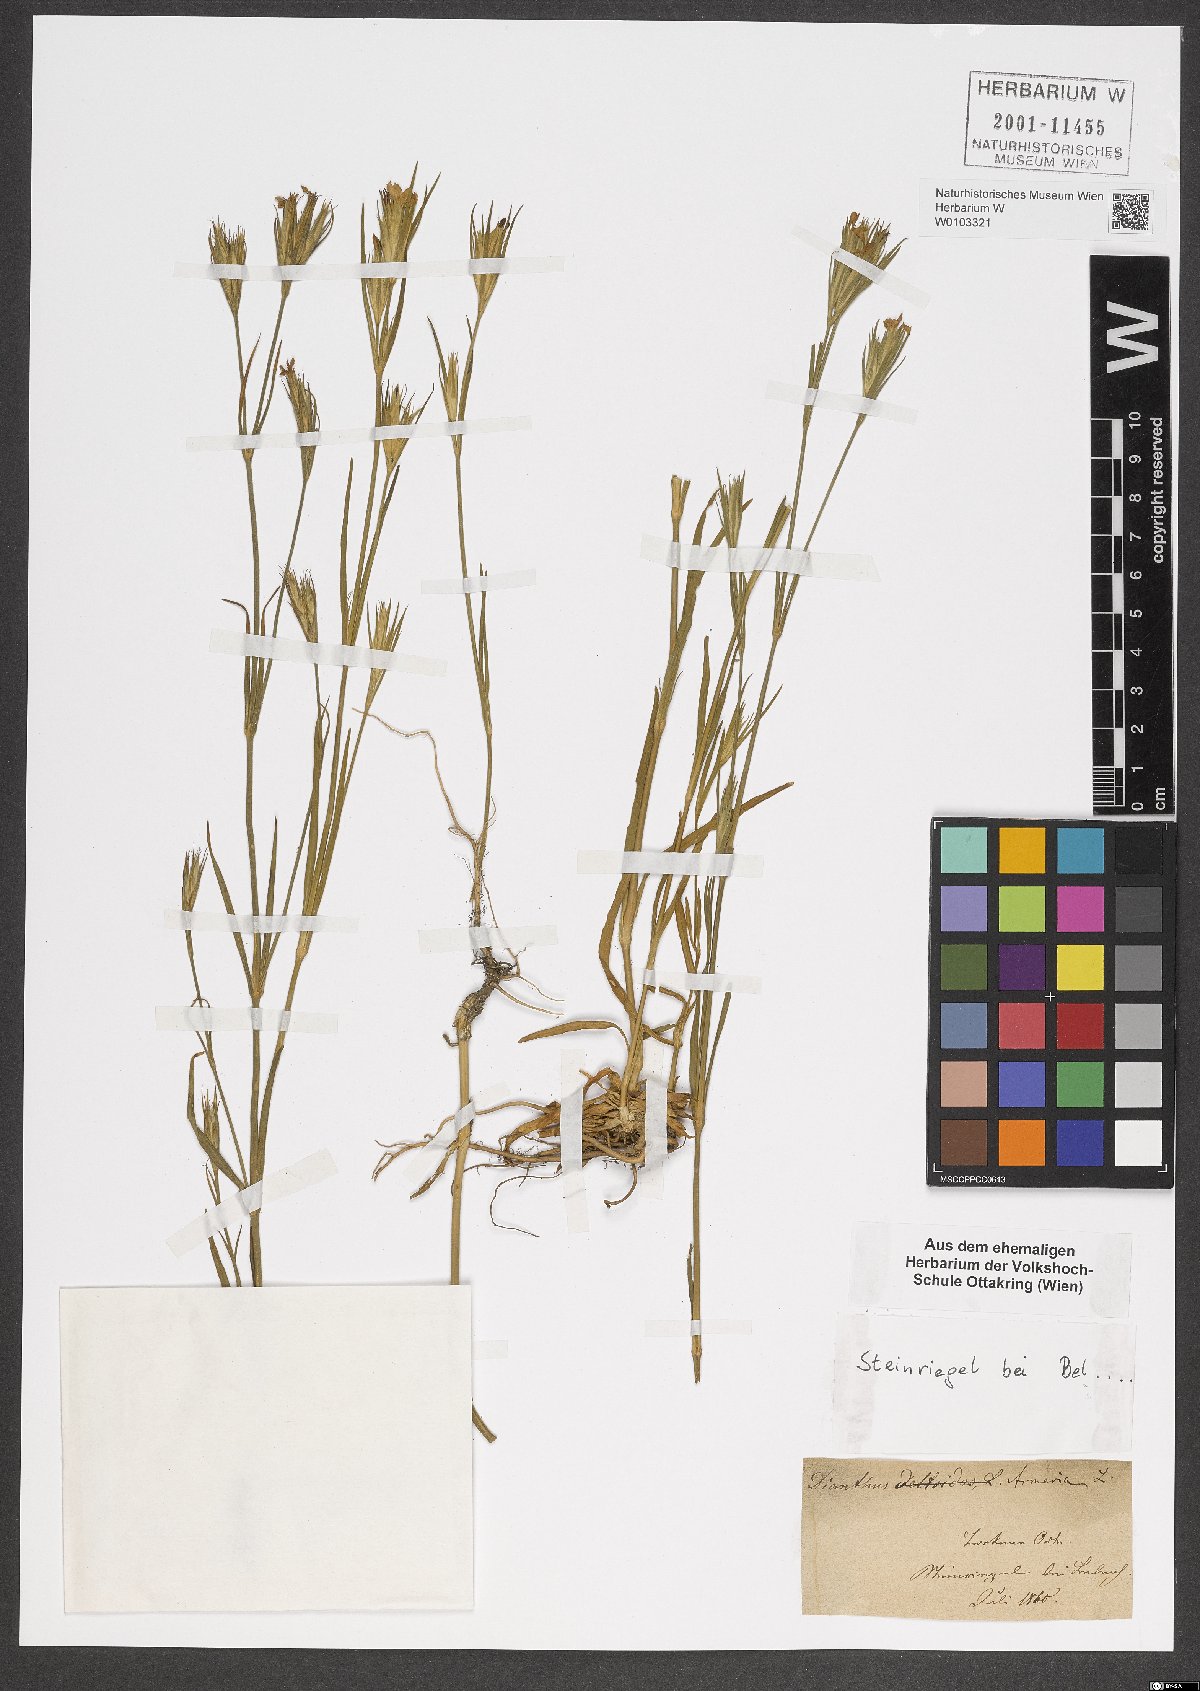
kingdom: Plantae
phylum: Tracheophyta
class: Magnoliopsida
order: Caryophyllales
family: Caryophyllaceae
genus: Dianthus
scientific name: Dianthus armeria
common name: Deptford pink
